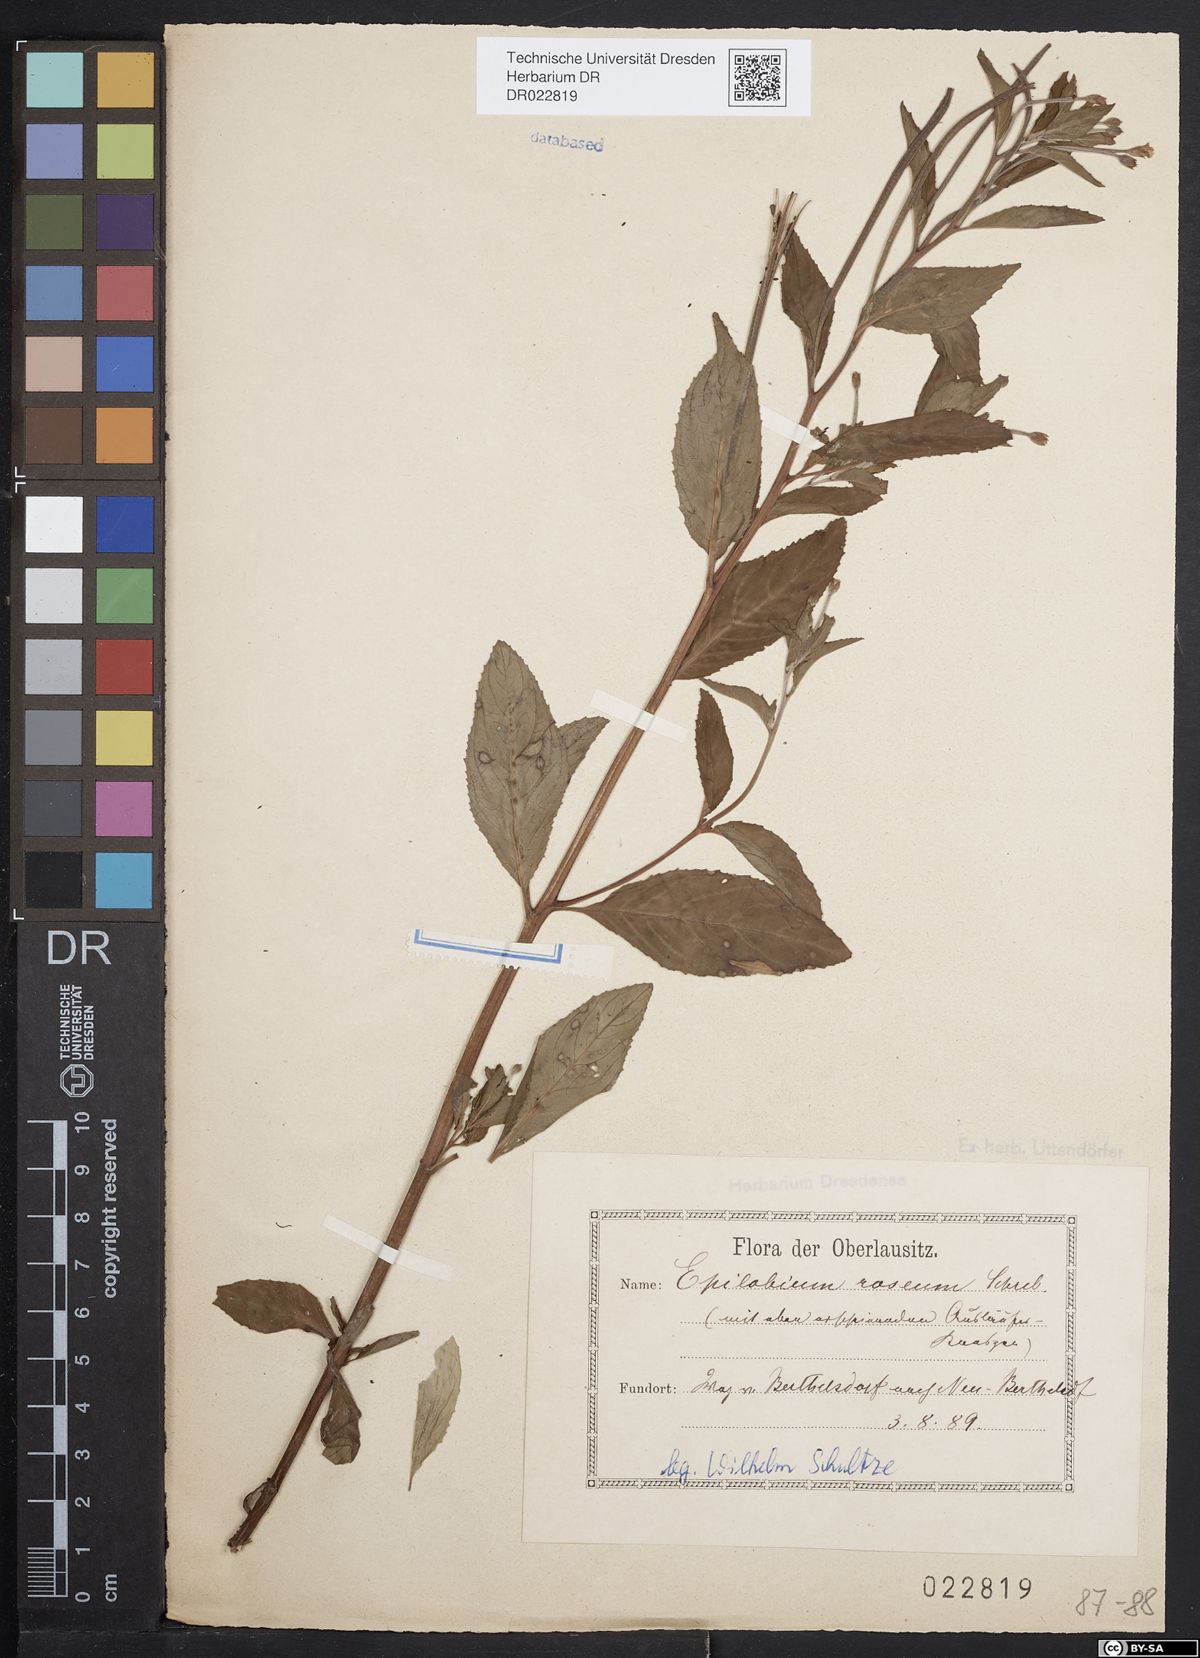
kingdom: Plantae
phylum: Tracheophyta
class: Magnoliopsida
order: Myrtales
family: Onagraceae
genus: Epilobium
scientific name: Epilobium roseum
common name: Pale willowherb
